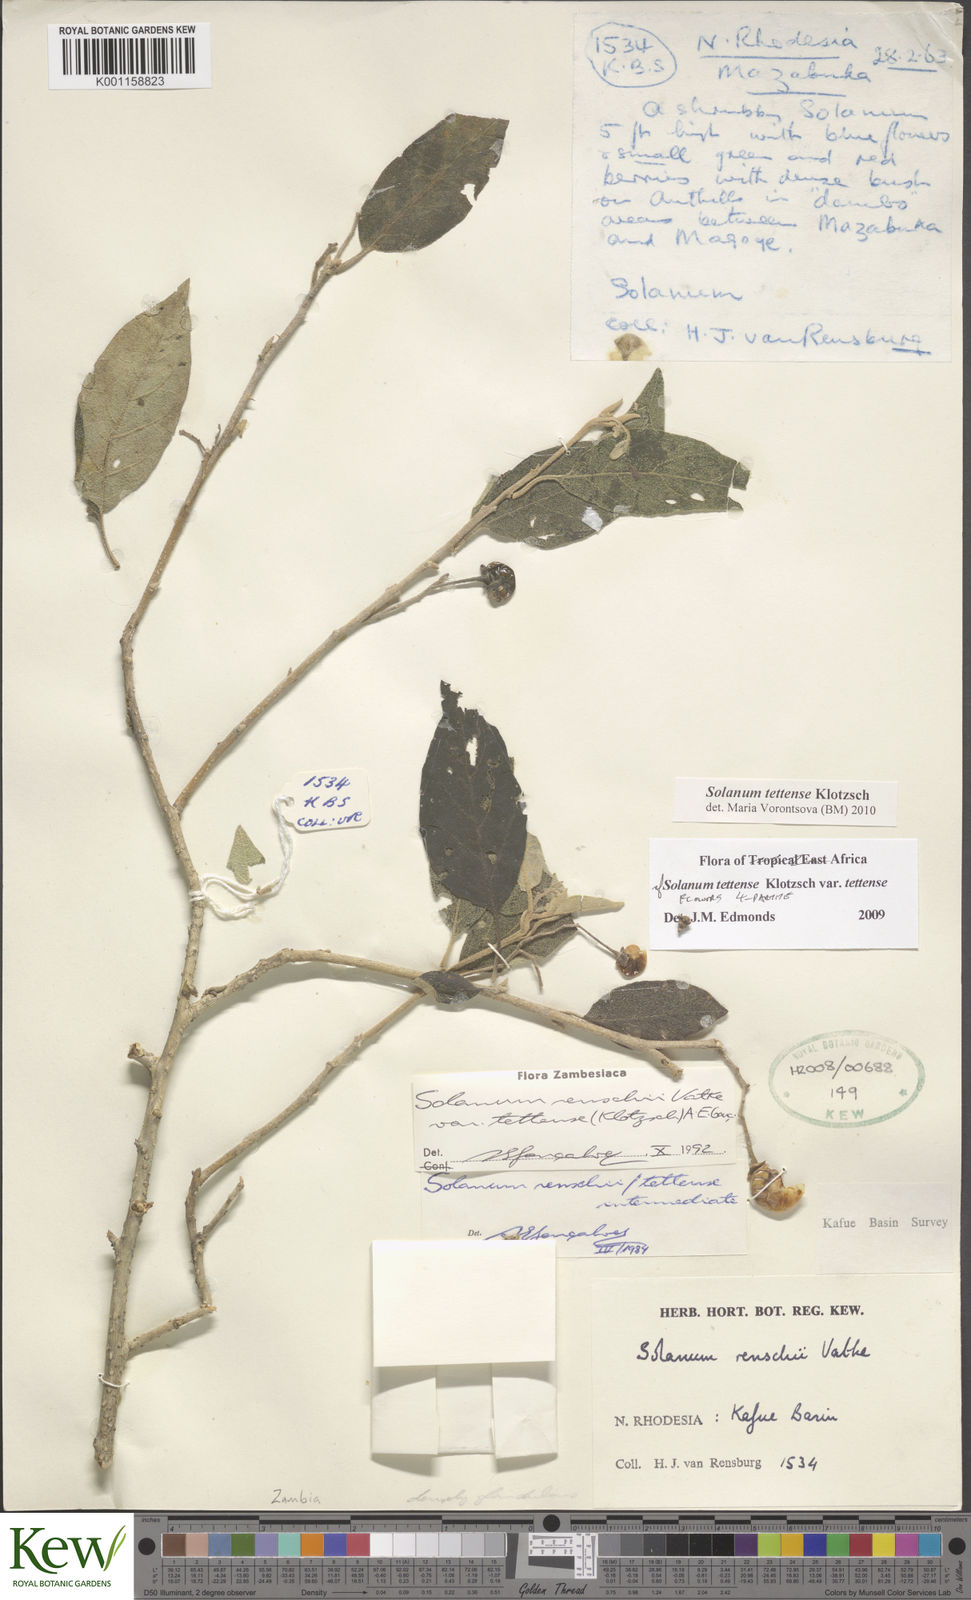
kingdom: Plantae
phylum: Tracheophyta
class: Magnoliopsida
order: Solanales
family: Solanaceae
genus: Solanum
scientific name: Solanum tettense
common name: Mozambique bitter apple
